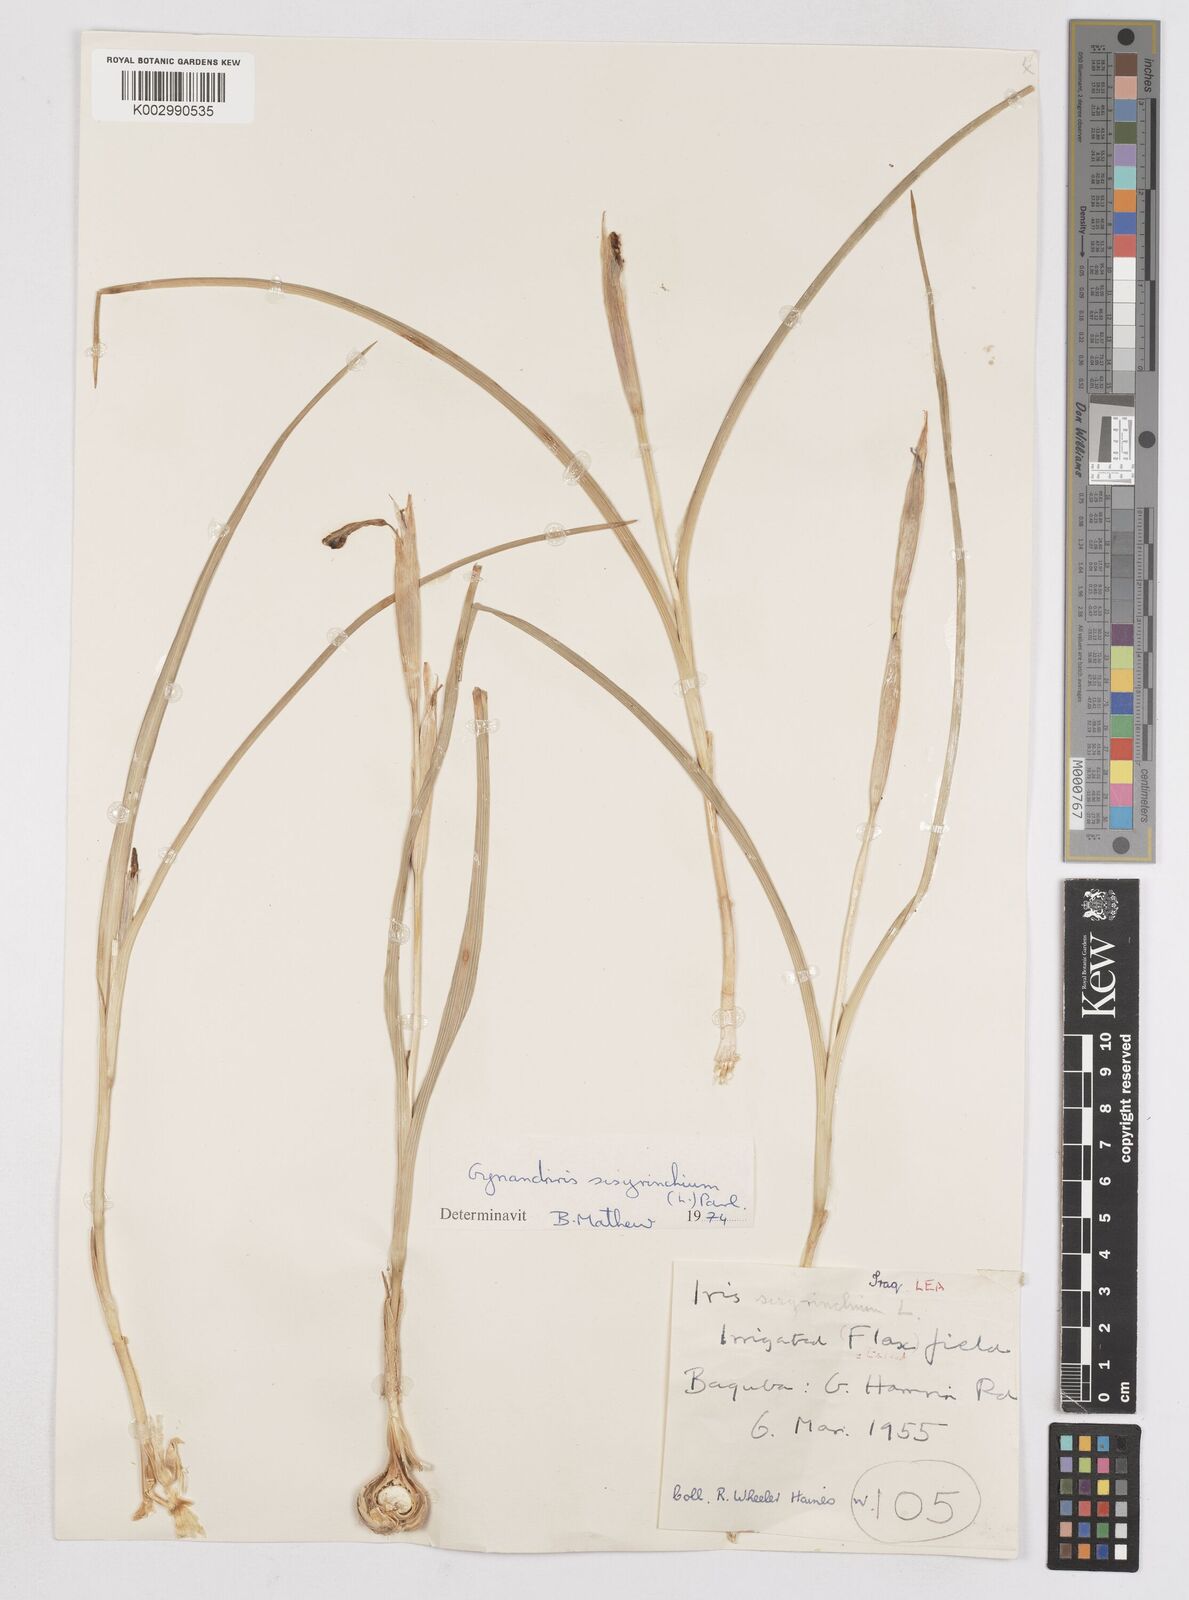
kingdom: Plantae
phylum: Tracheophyta
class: Liliopsida
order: Asparagales
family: Iridaceae
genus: Moraea
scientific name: Moraea sisyrinchium
